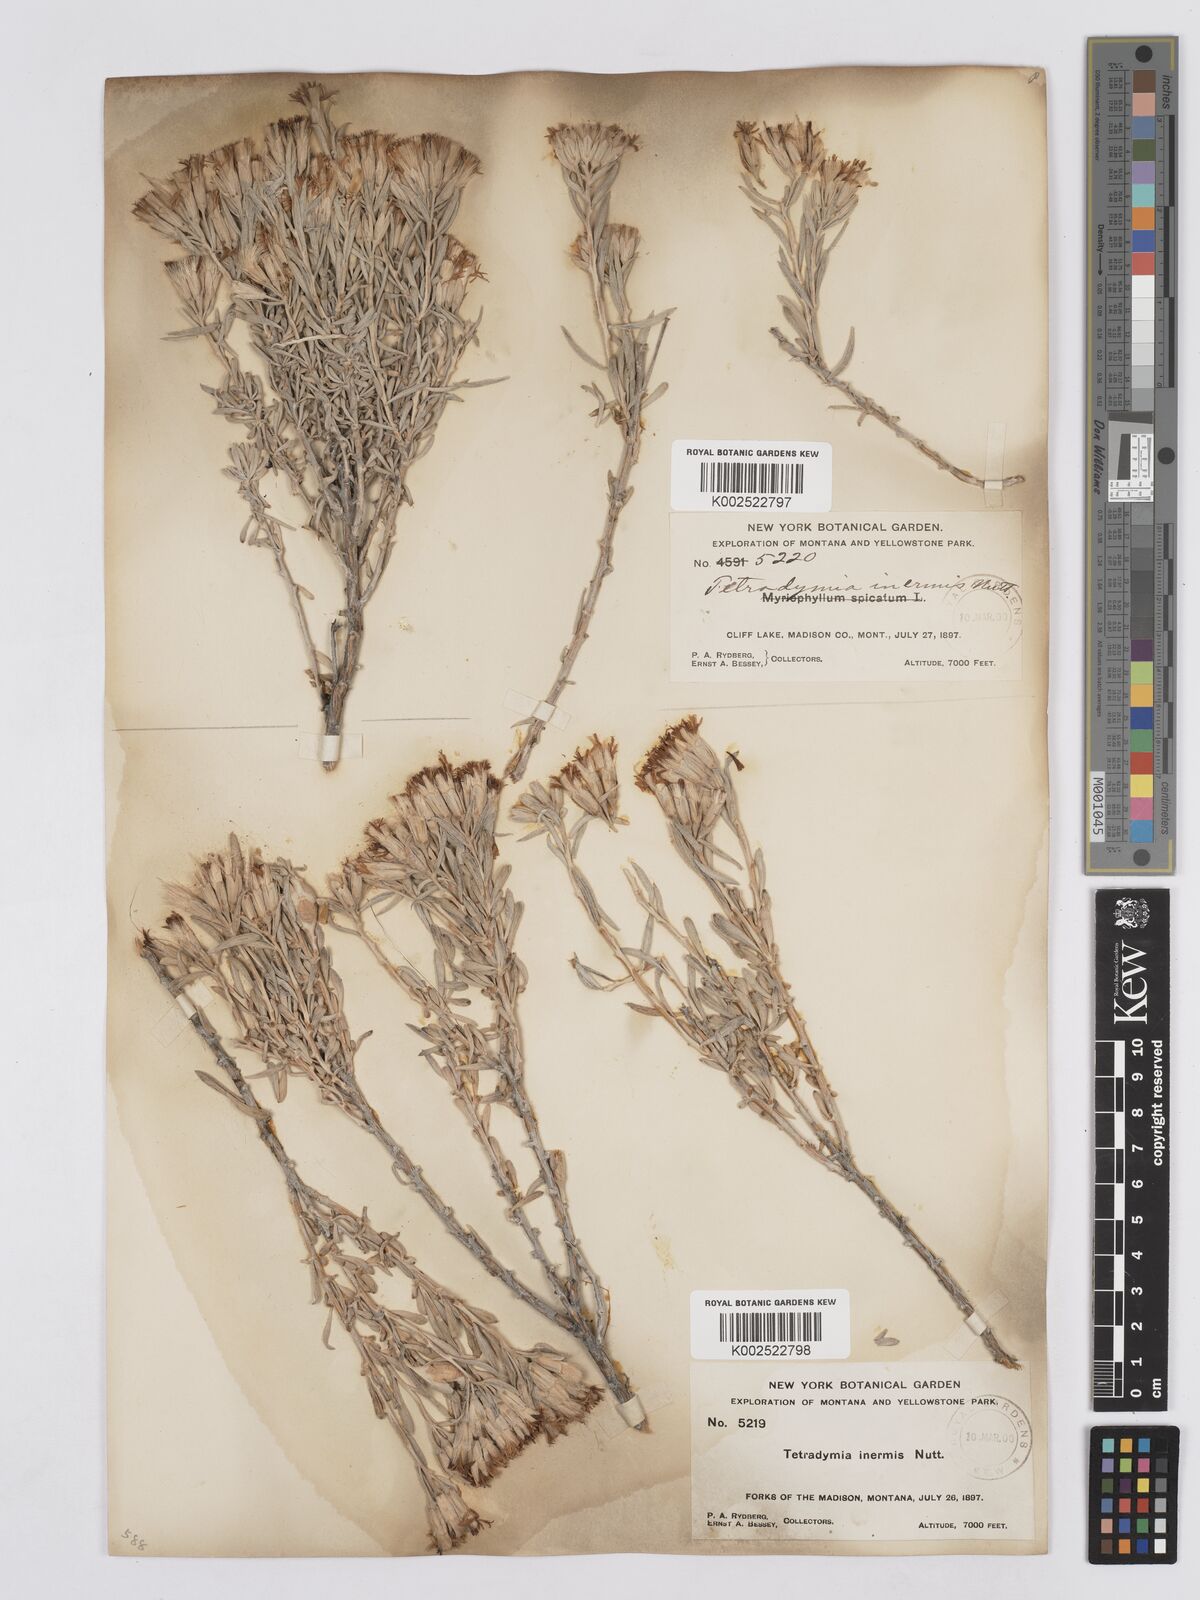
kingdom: Plantae
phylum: Tracheophyta
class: Magnoliopsida
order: Asterales
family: Asteraceae
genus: Tetradymia
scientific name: Tetradymia canescens
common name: Spineless horsebrush
